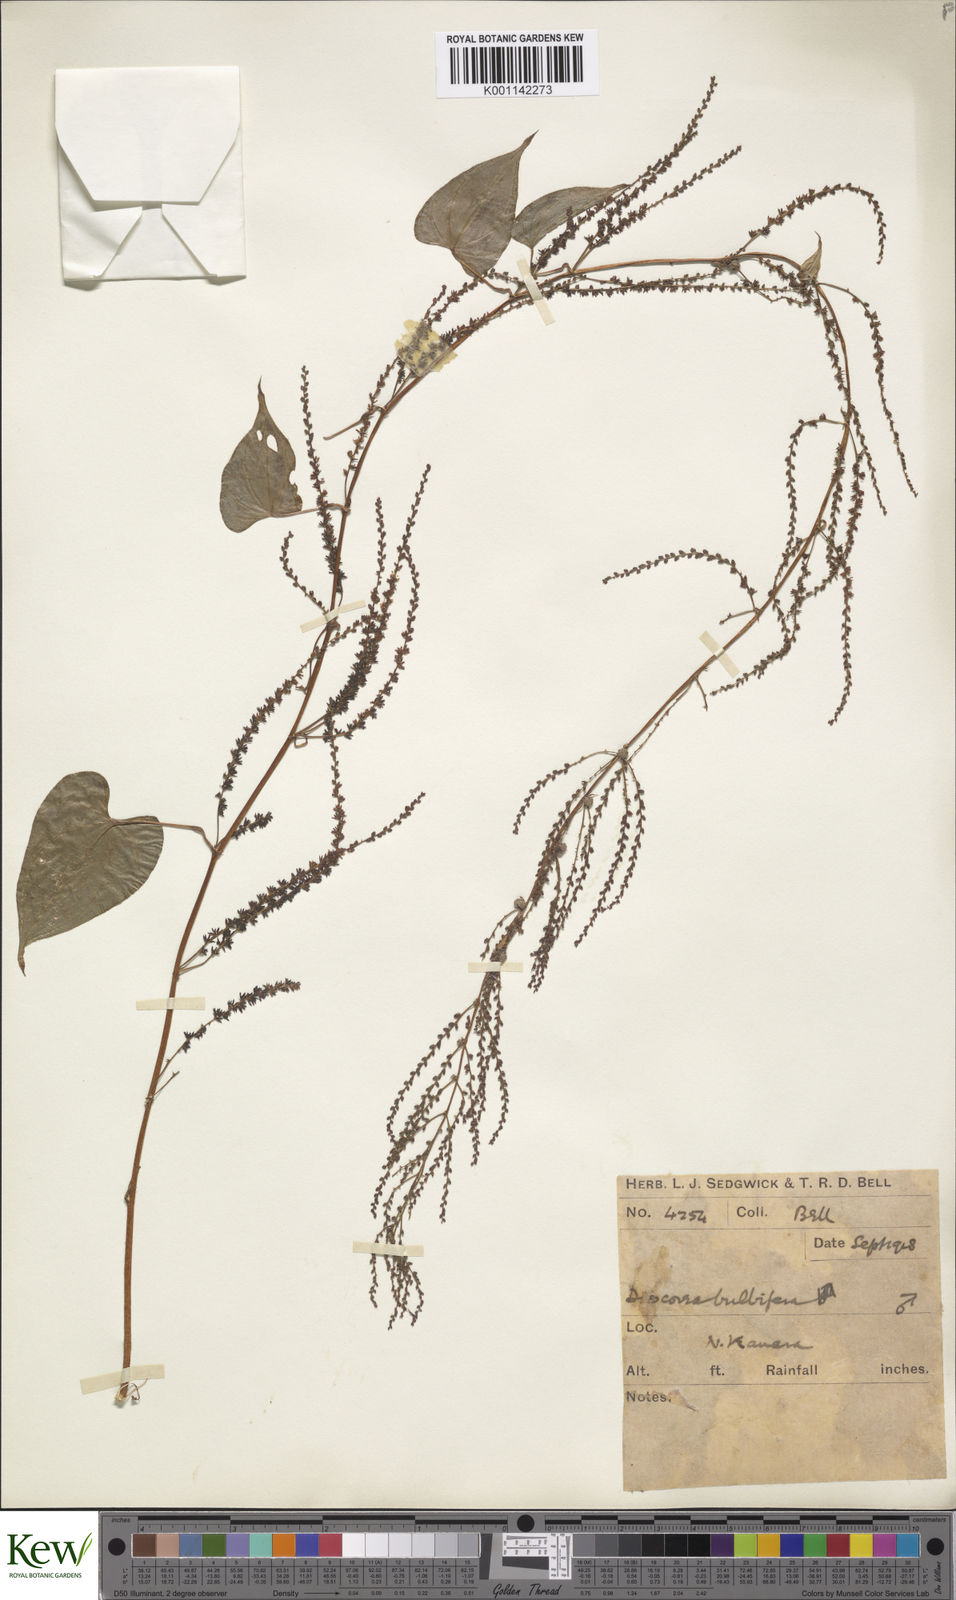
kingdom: Plantae
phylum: Tracheophyta
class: Liliopsida
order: Dioscoreales
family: Dioscoreaceae
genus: Dioscorea
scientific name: Dioscorea bulbifera
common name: Air yam
